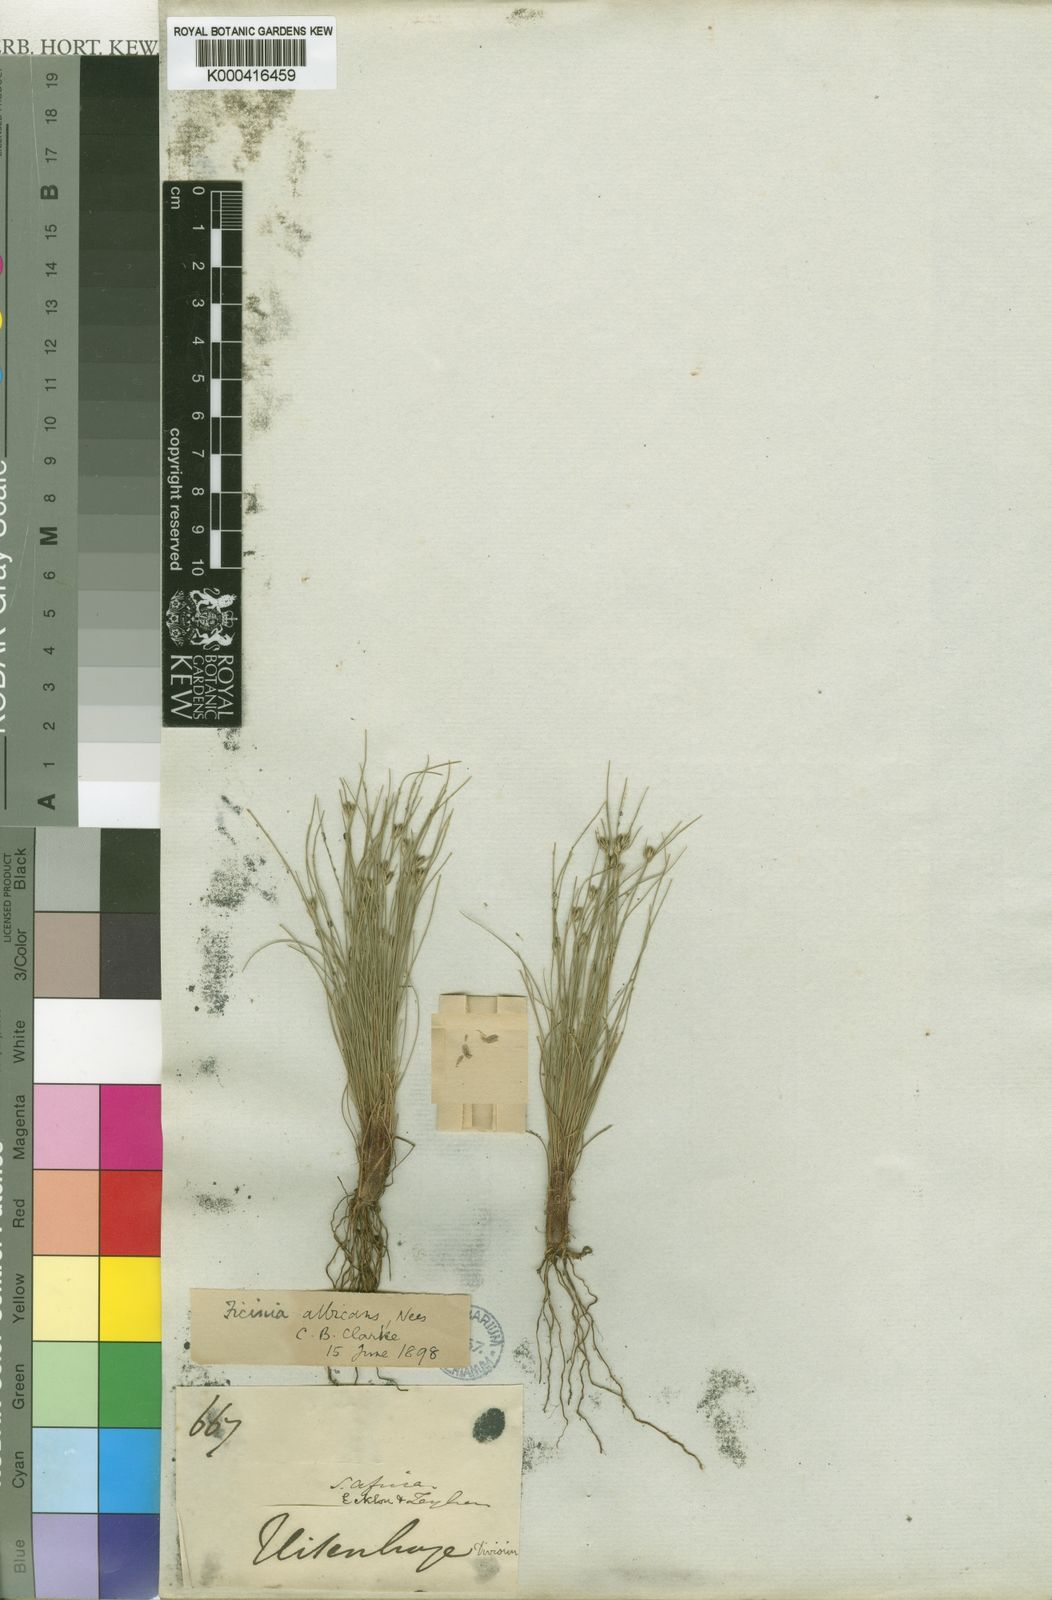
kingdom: Plantae
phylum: Tracheophyta
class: Liliopsida
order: Poales
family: Cyperaceae
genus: Ficinia
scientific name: Ficinia albicans
